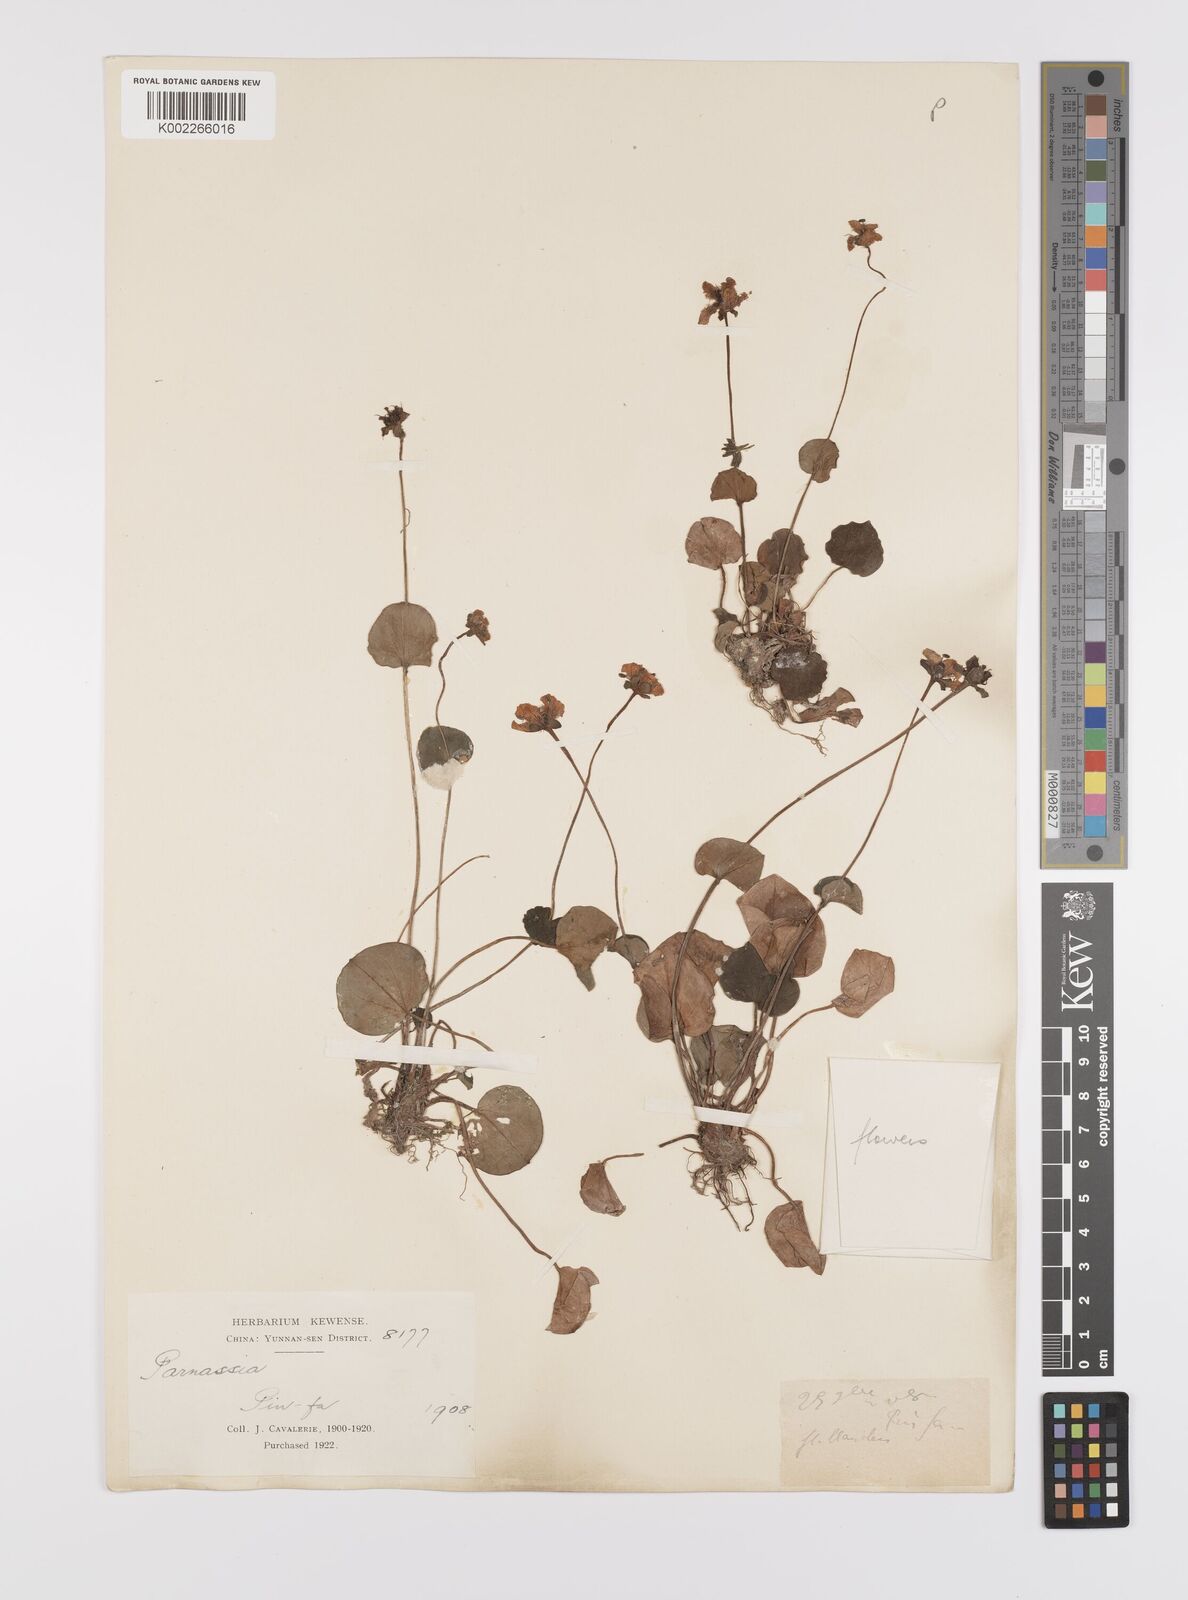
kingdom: Plantae
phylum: Tracheophyta
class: Magnoliopsida
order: Celastrales
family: Parnassiaceae
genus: Parnassia
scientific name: Parnassia wightiana
